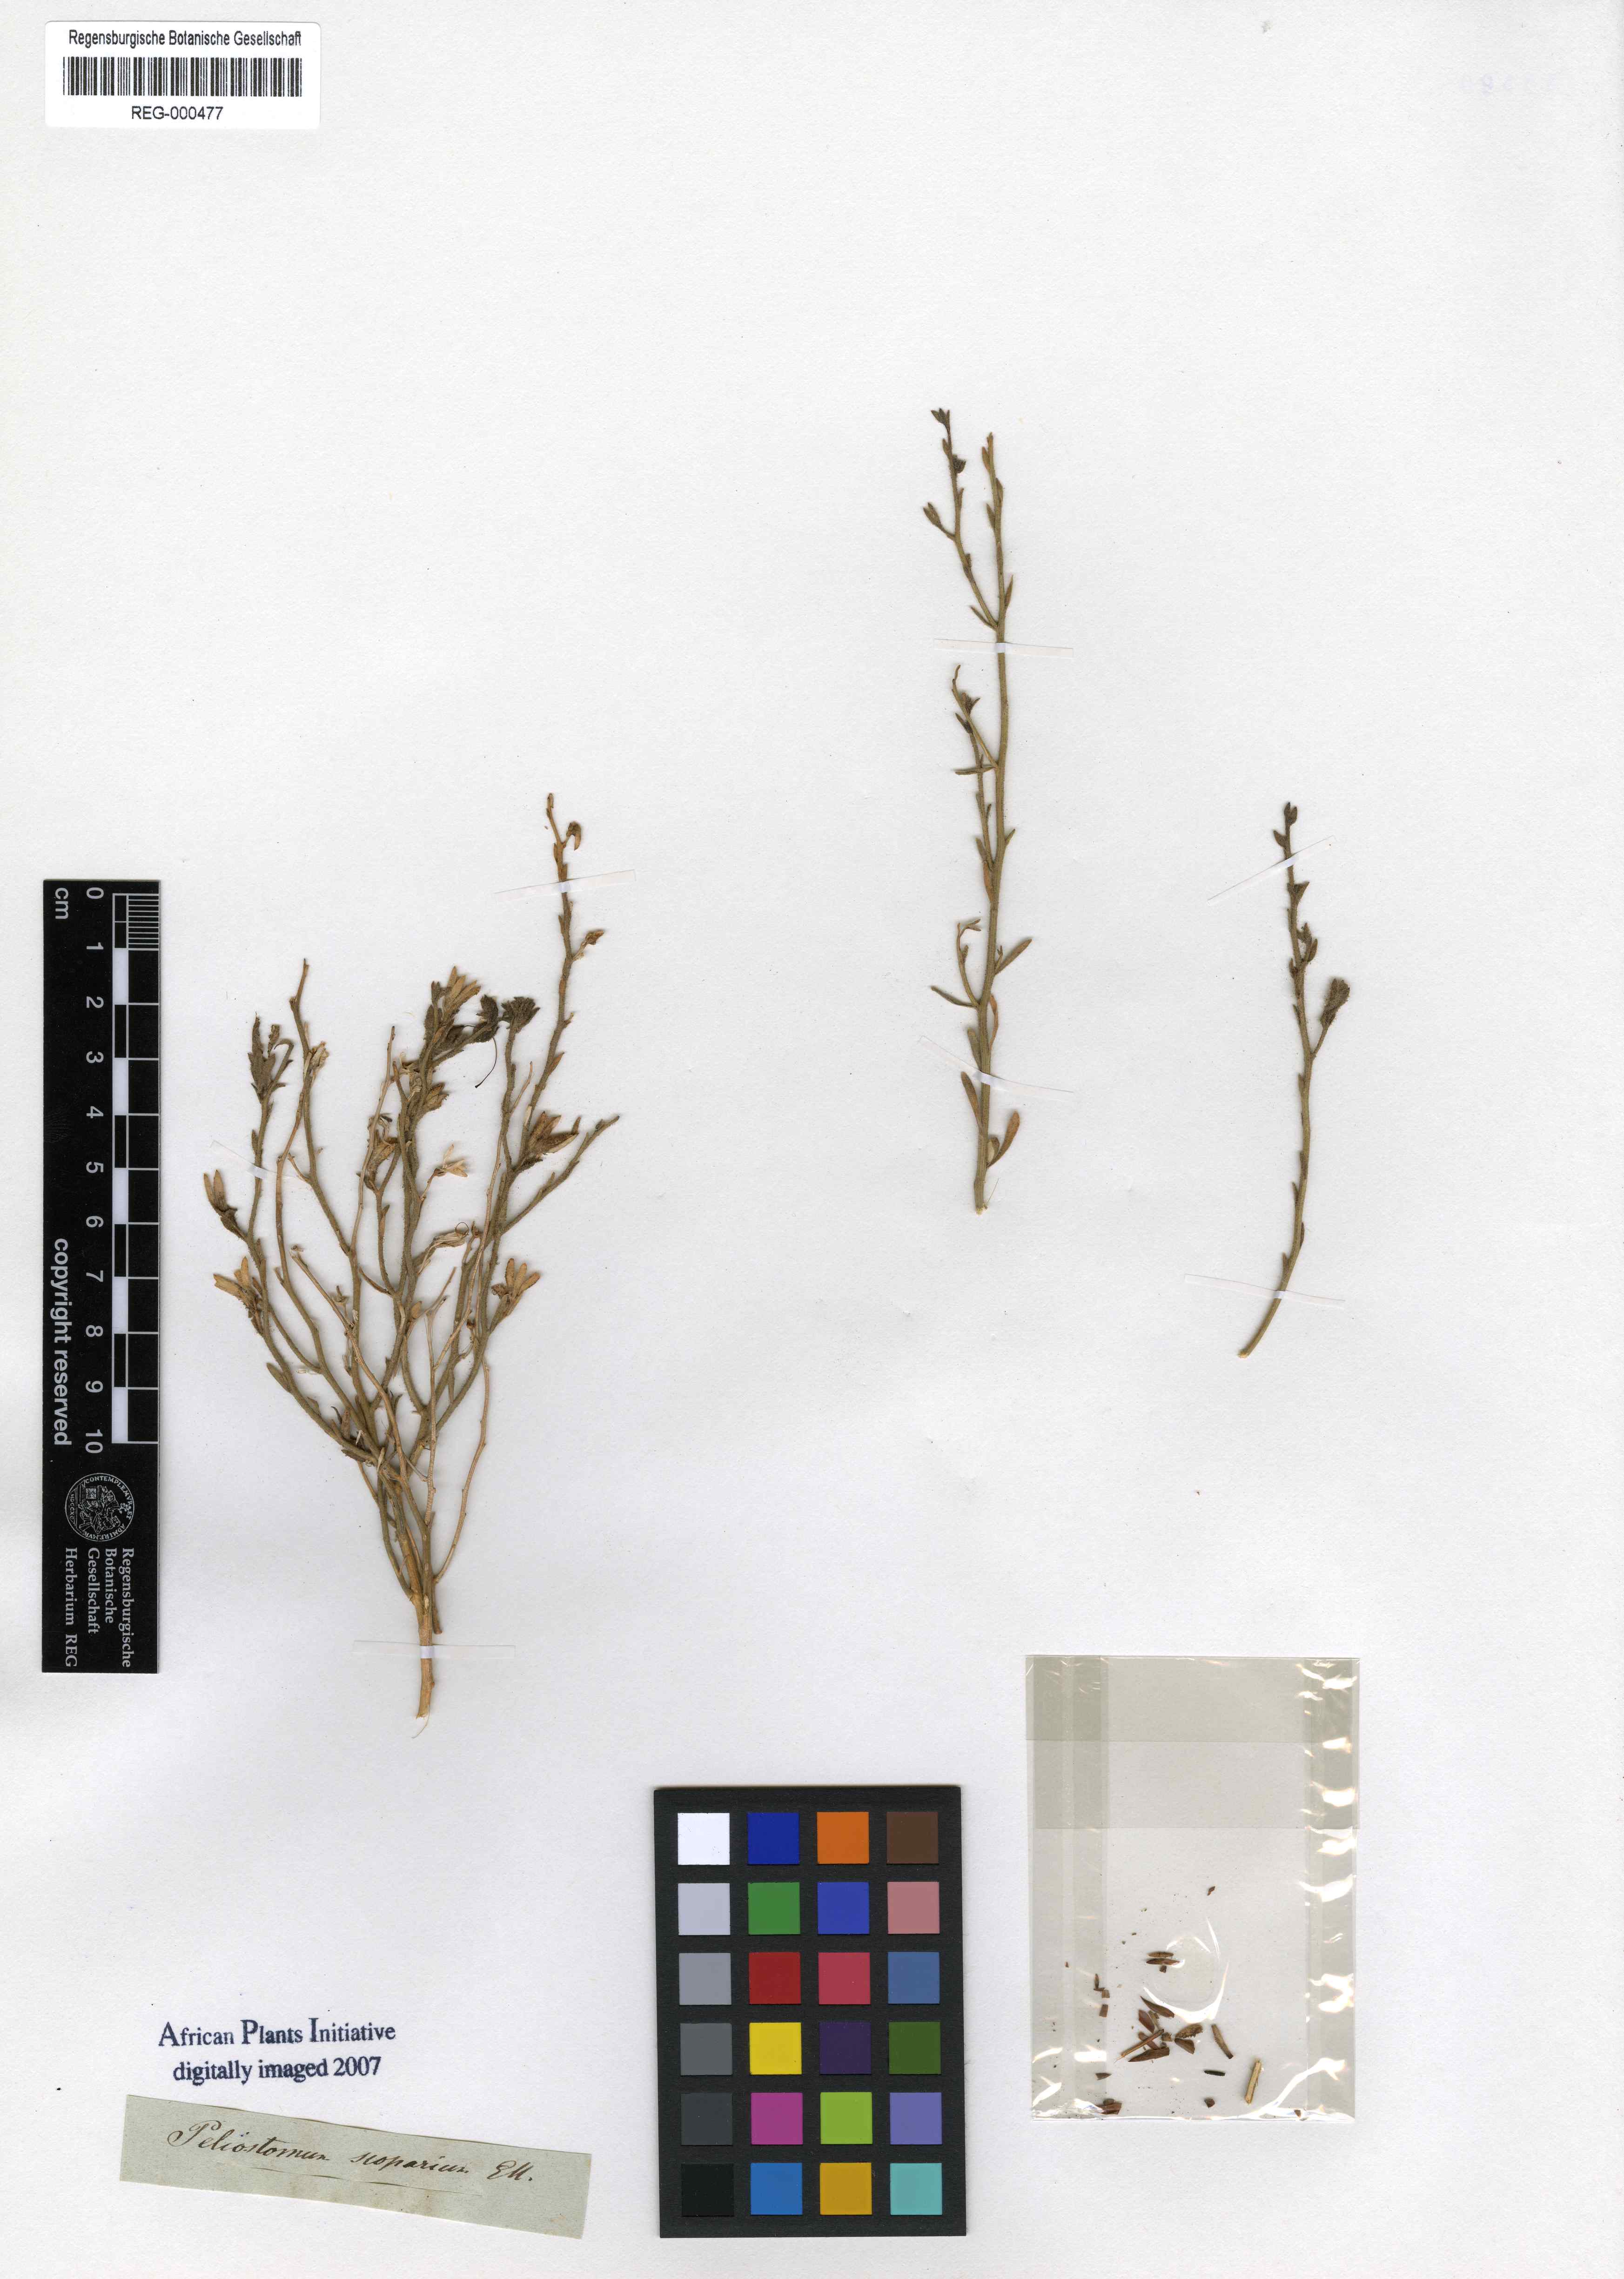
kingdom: Plantae
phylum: Tracheophyta
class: Magnoliopsida
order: Lamiales
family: Scrophulariaceae
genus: Anticharis
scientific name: Anticharis scoparia
